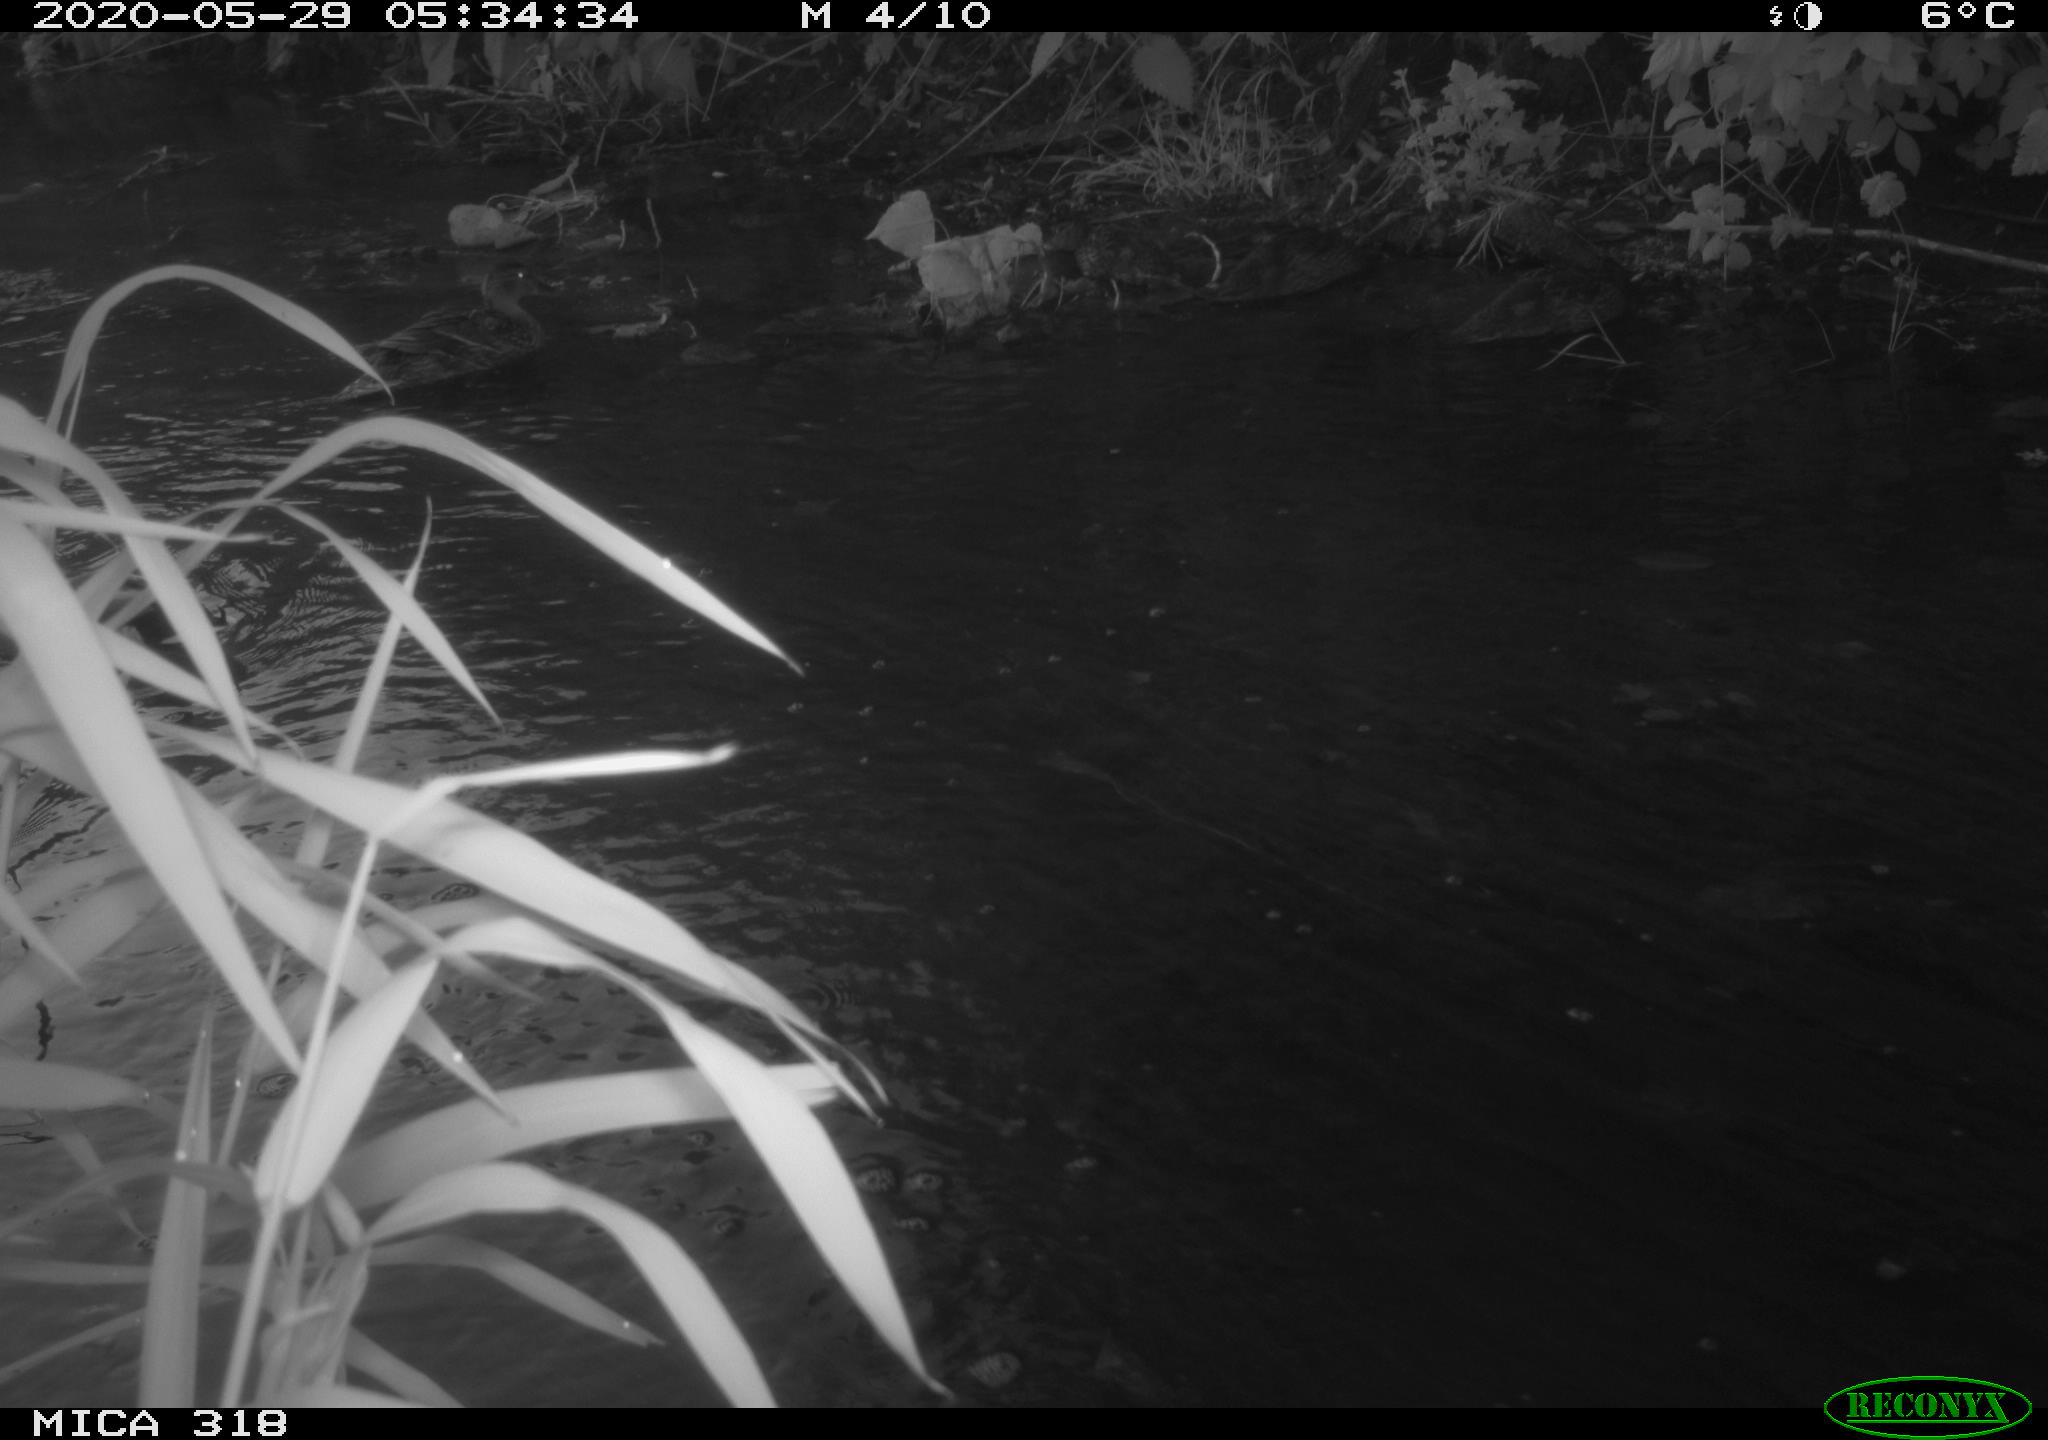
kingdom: Animalia
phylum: Chordata
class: Aves
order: Anseriformes
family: Anatidae
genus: Anas
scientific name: Anas platyrhynchos
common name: Mallard
